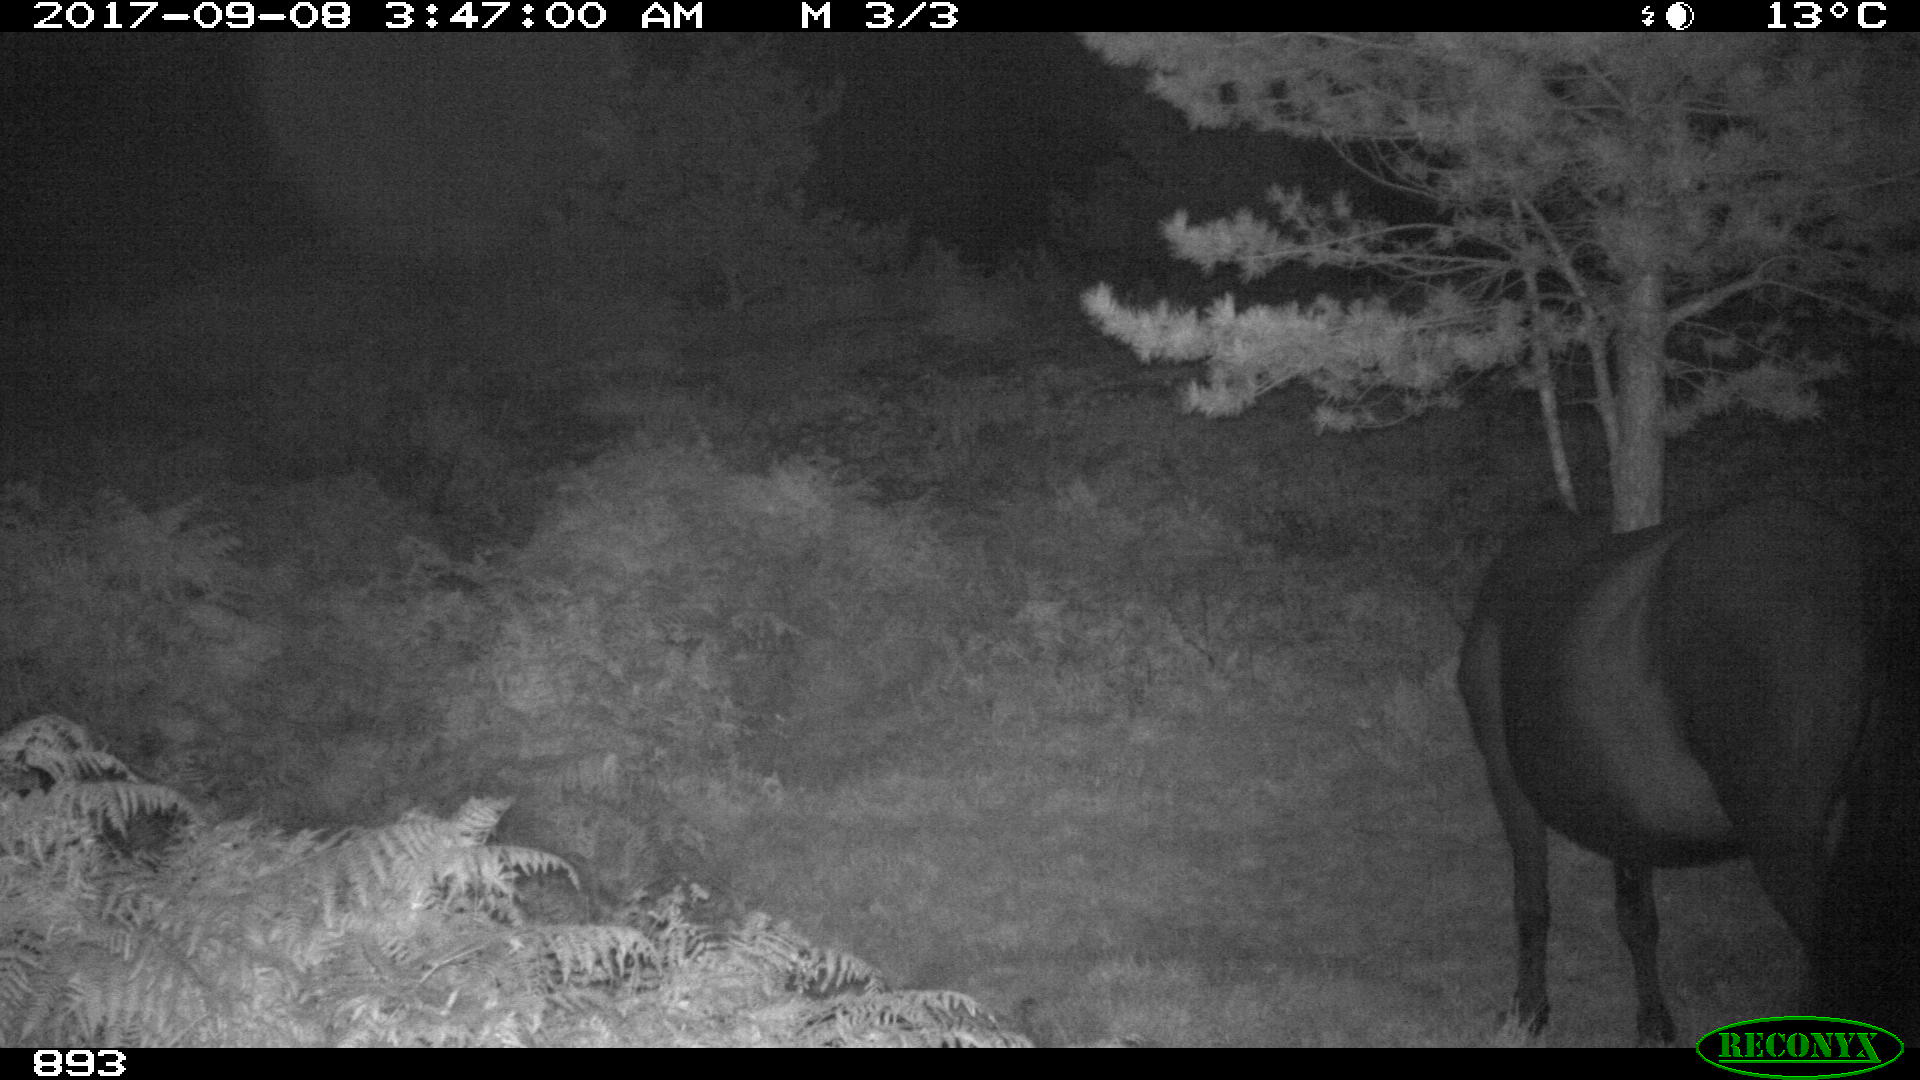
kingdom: Animalia
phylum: Chordata
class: Mammalia
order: Perissodactyla
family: Equidae
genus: Equus
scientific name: Equus caballus
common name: Horse
